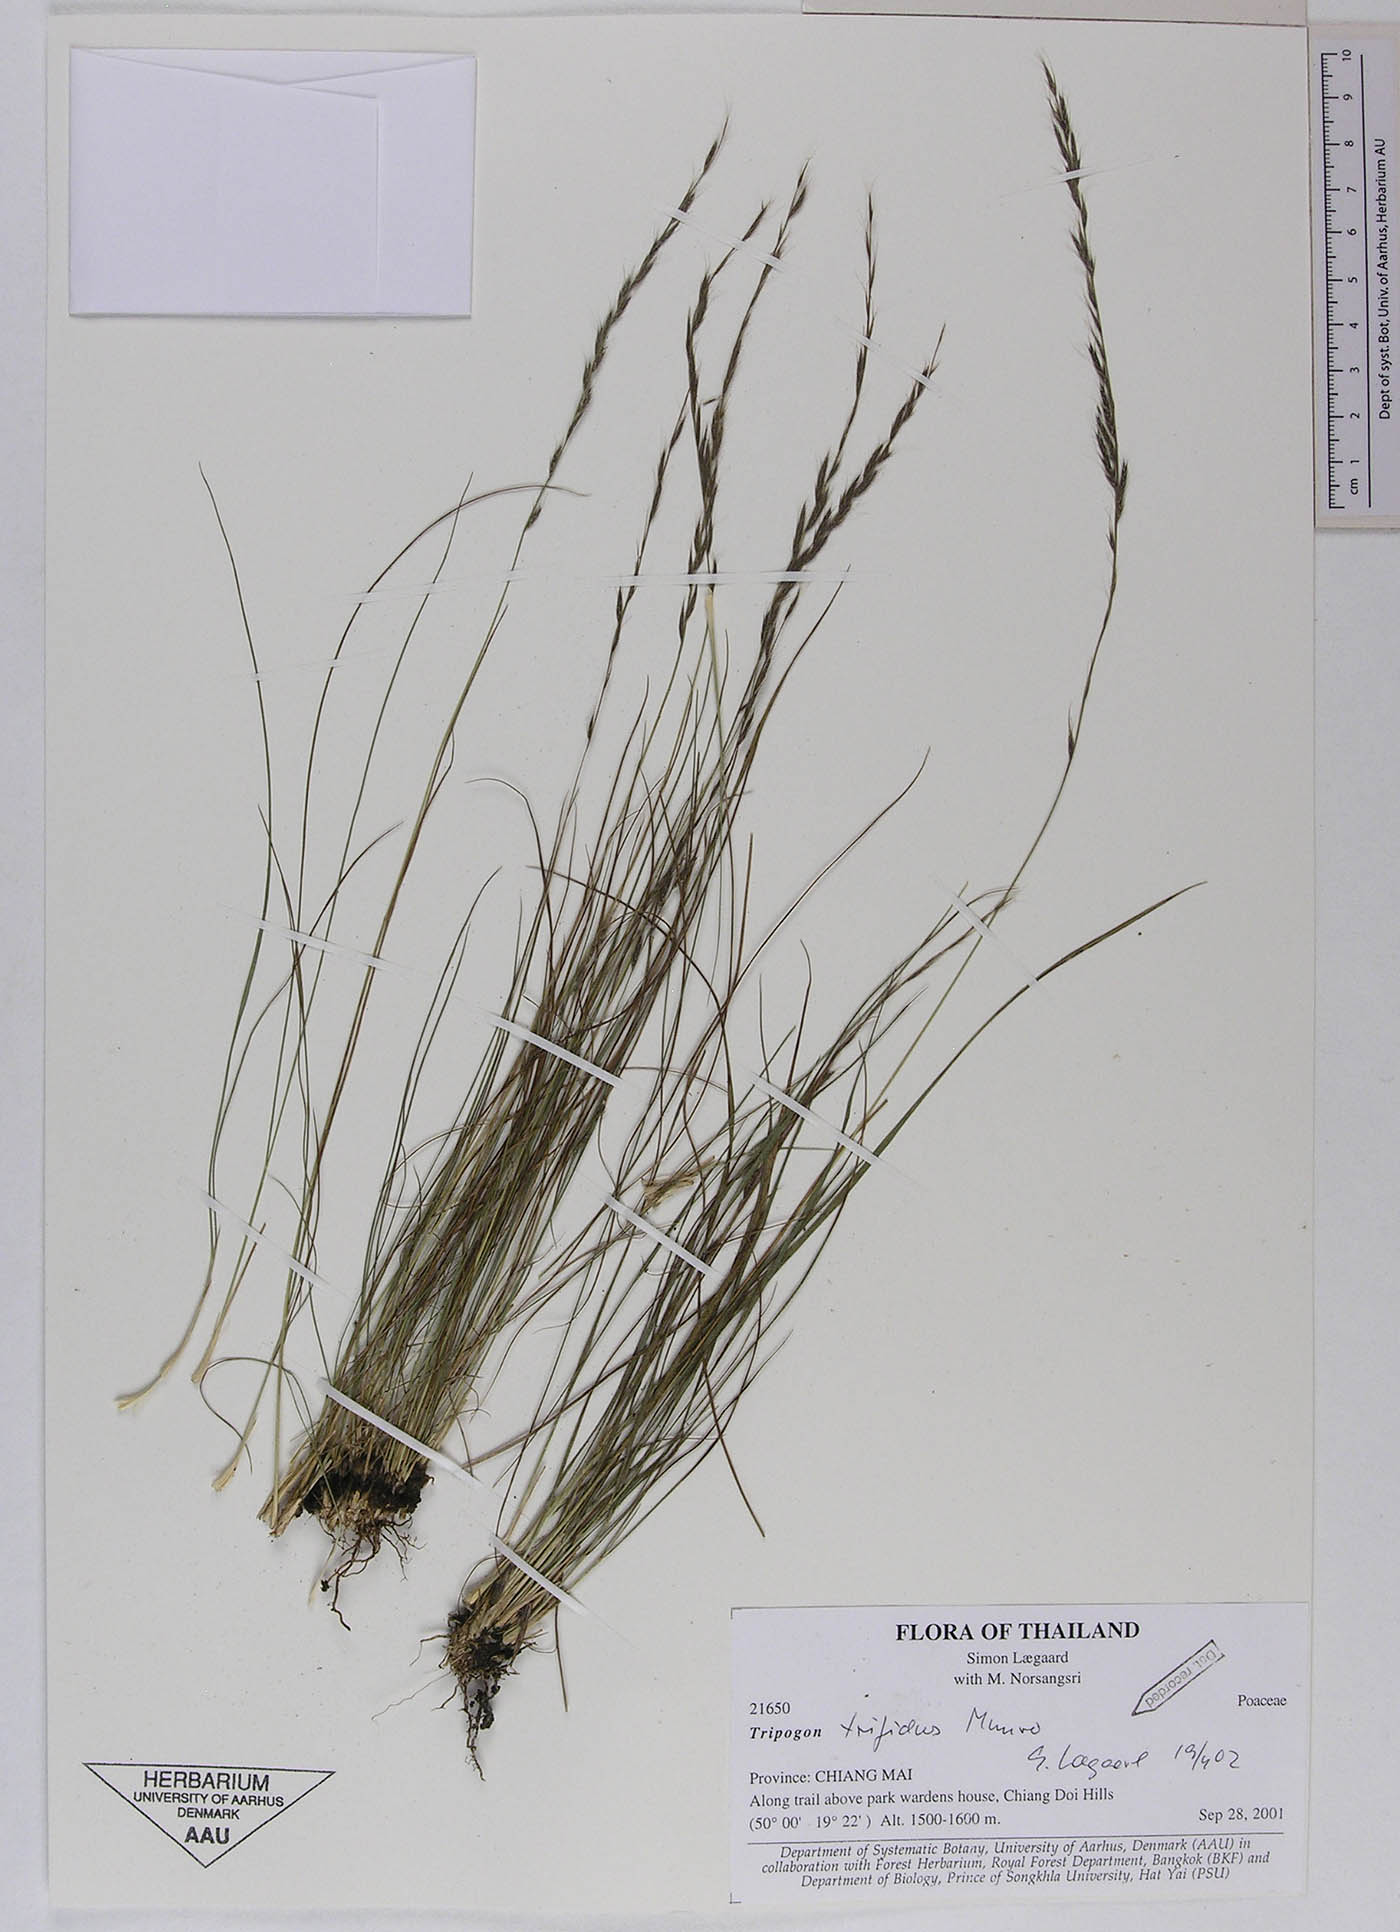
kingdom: Plantae
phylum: Tracheophyta
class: Liliopsida
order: Poales
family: Poaceae
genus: Tripogon
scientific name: Tripogon trifidus
